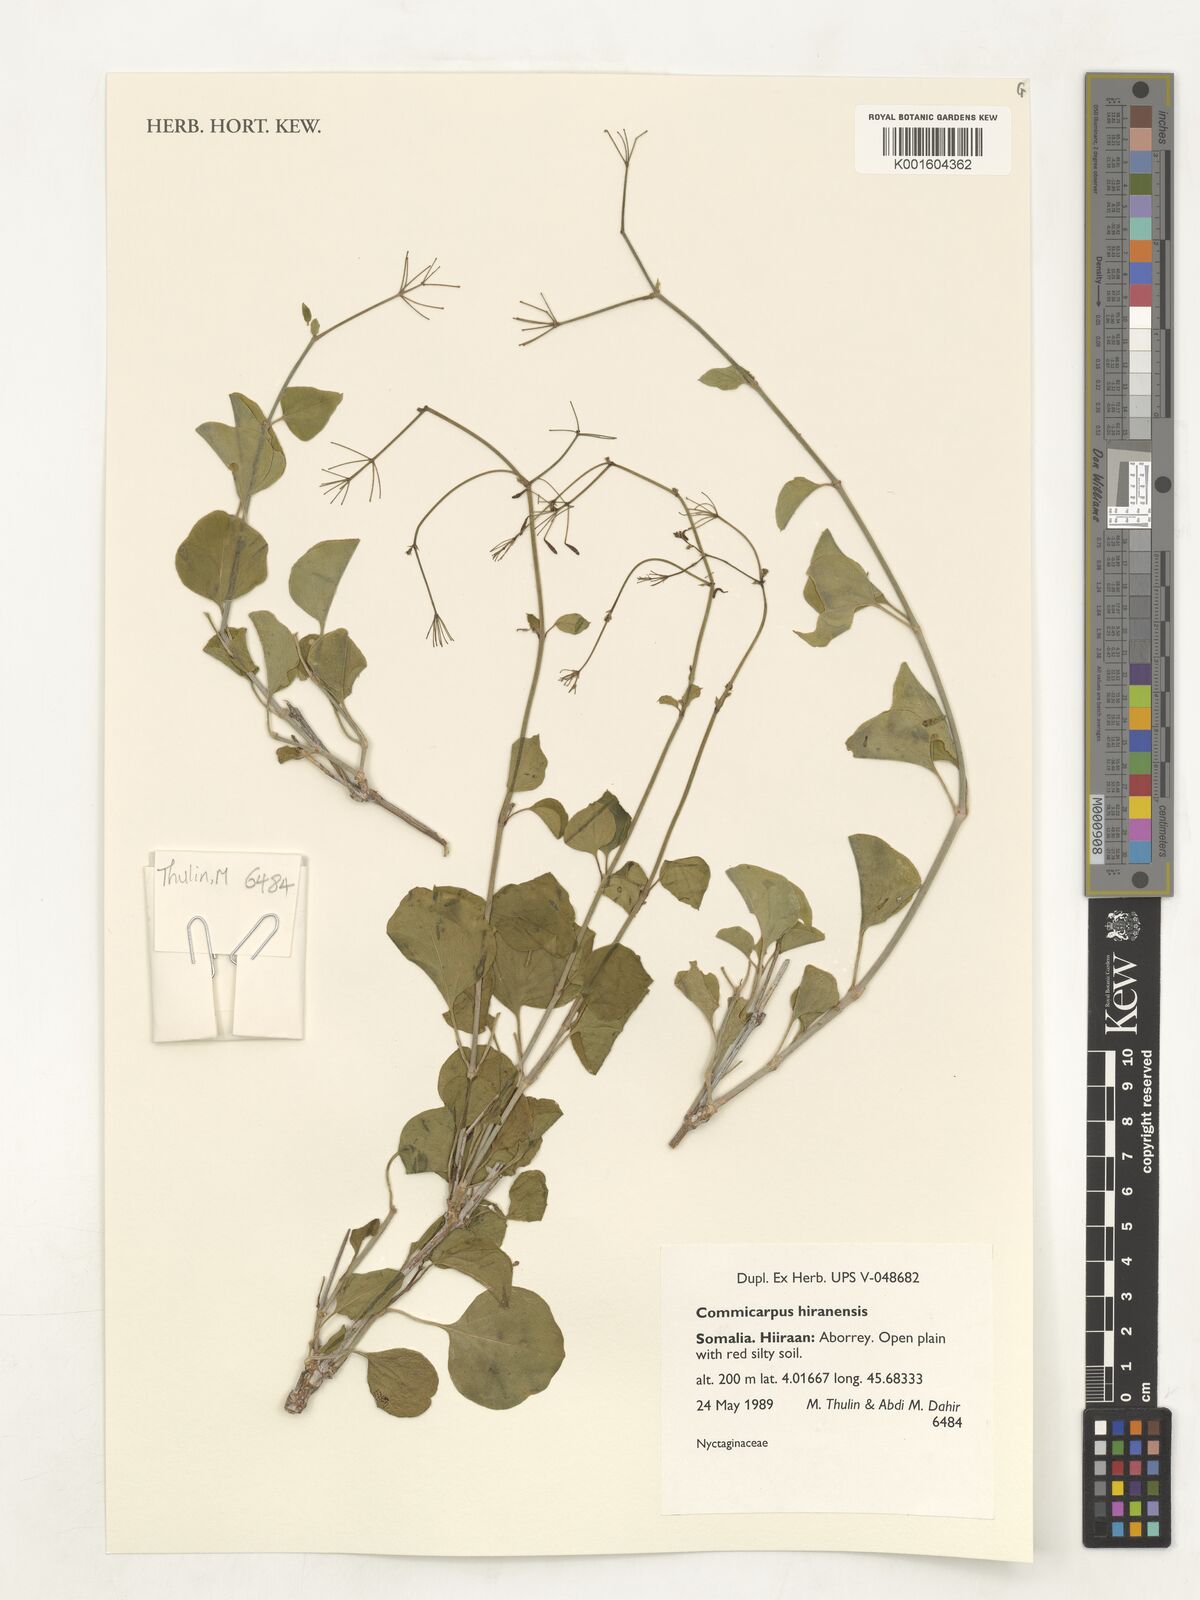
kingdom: Plantae
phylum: Tracheophyta
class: Magnoliopsida
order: Caryophyllales
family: Nyctaginaceae
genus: Commicarpus
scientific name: Commicarpus hiranensis
